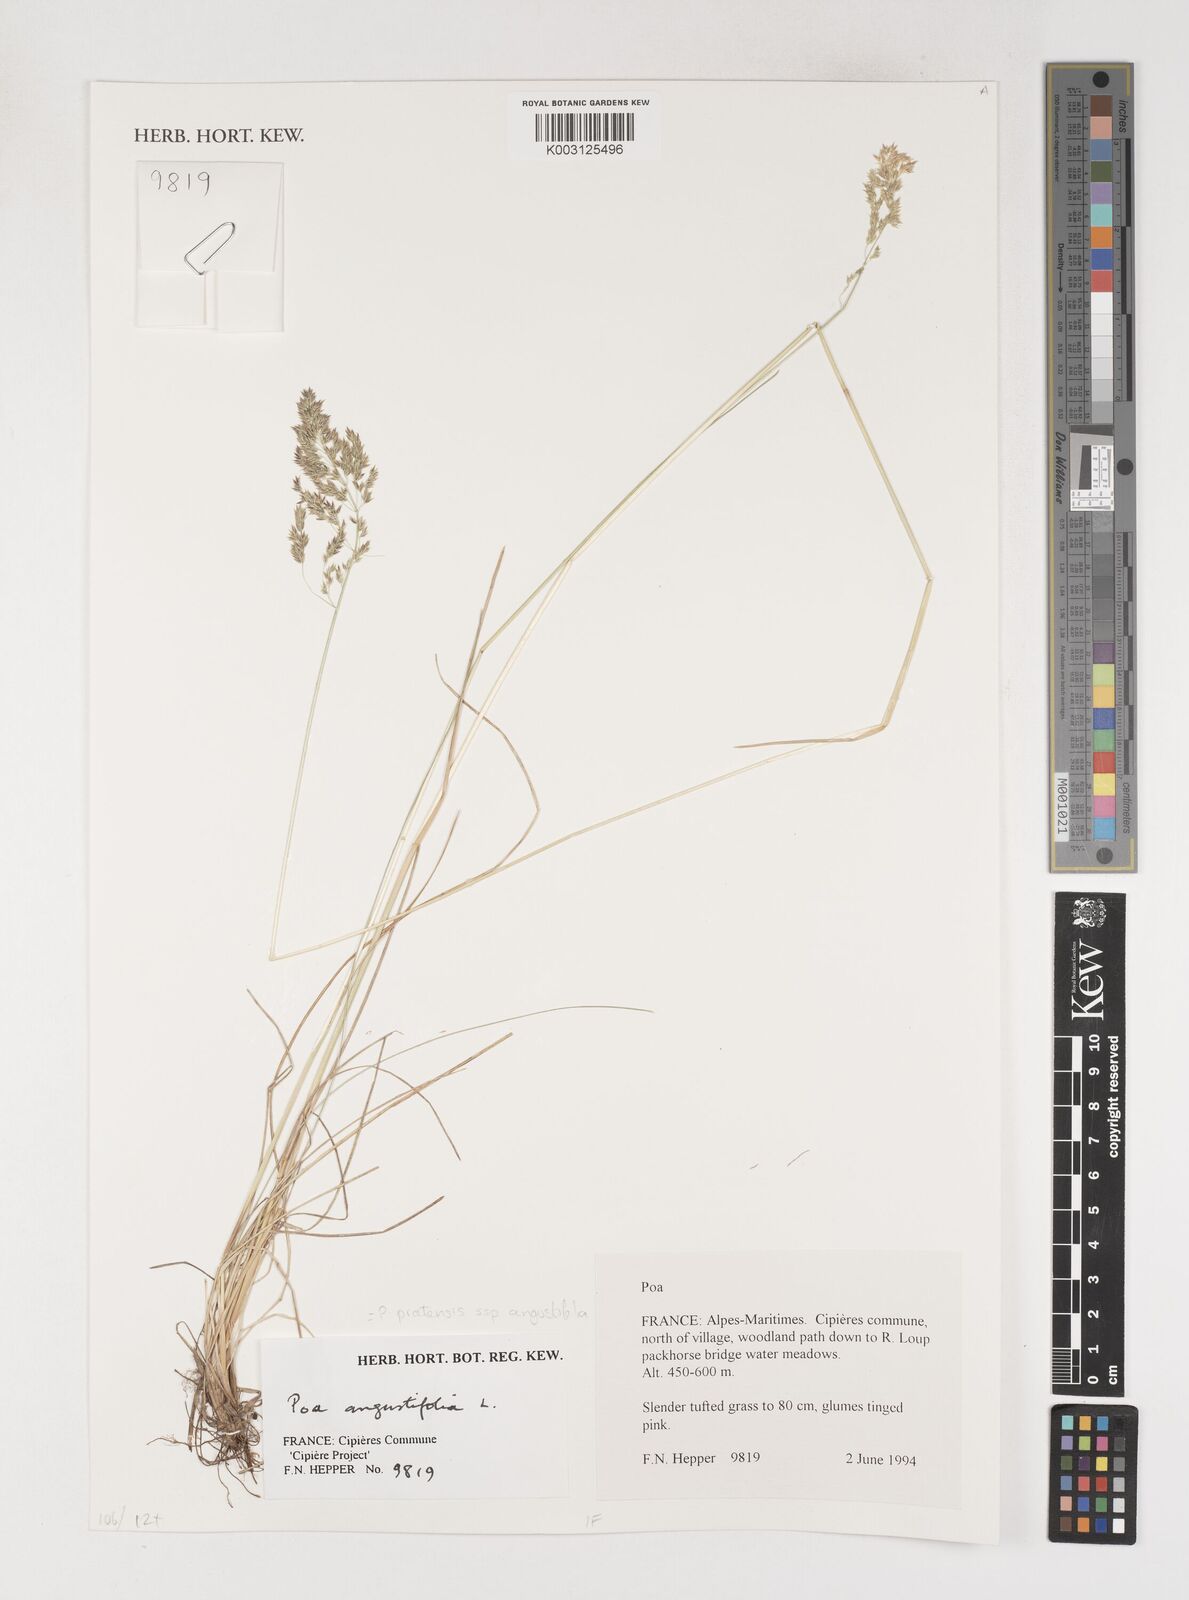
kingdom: Plantae
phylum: Tracheophyta
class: Liliopsida
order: Poales
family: Poaceae
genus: Poa
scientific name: Poa angustifolia
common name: Narrow-leaved meadow-grass
